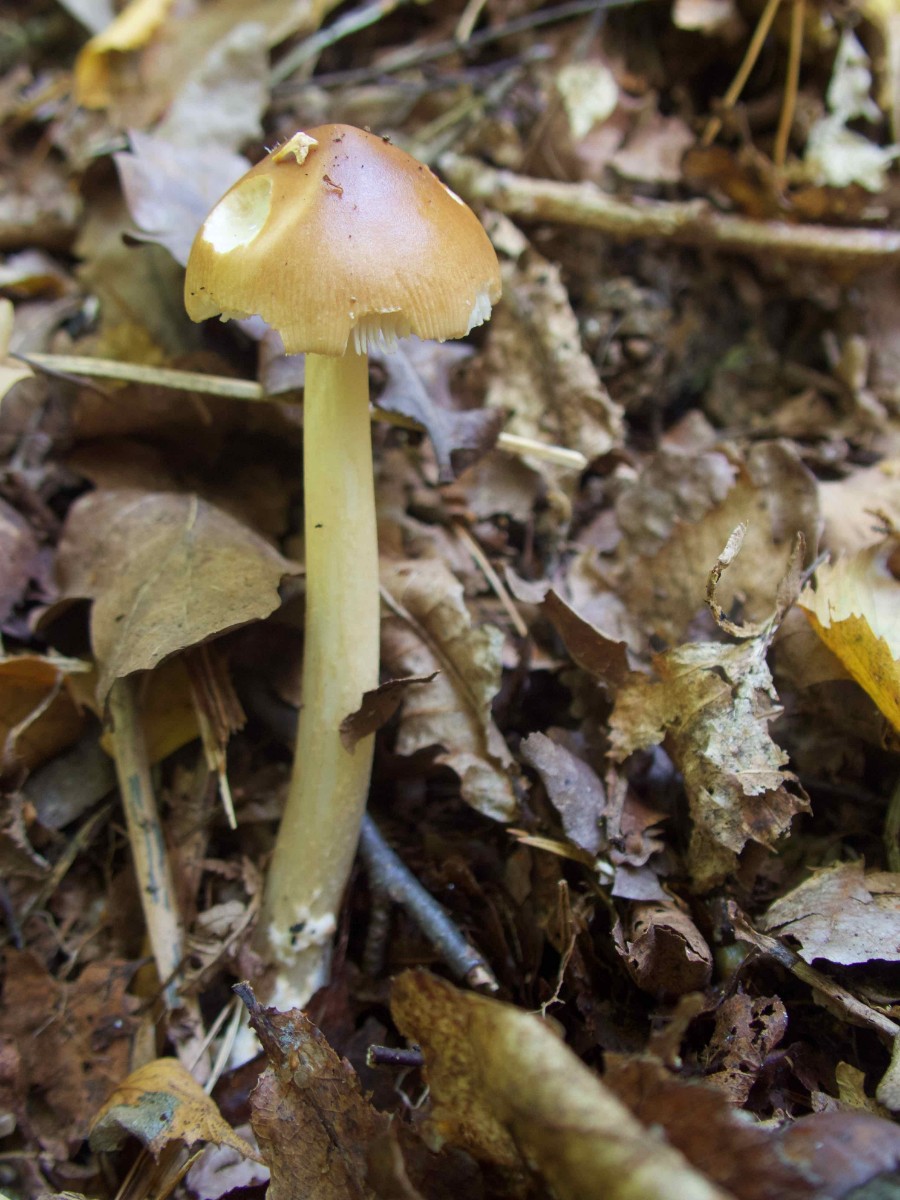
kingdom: Fungi
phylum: Basidiomycota
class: Agaricomycetes
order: Agaricales
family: Amanitaceae
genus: Amanita
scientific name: Amanita fulva
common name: brun kam-fluesvamp
